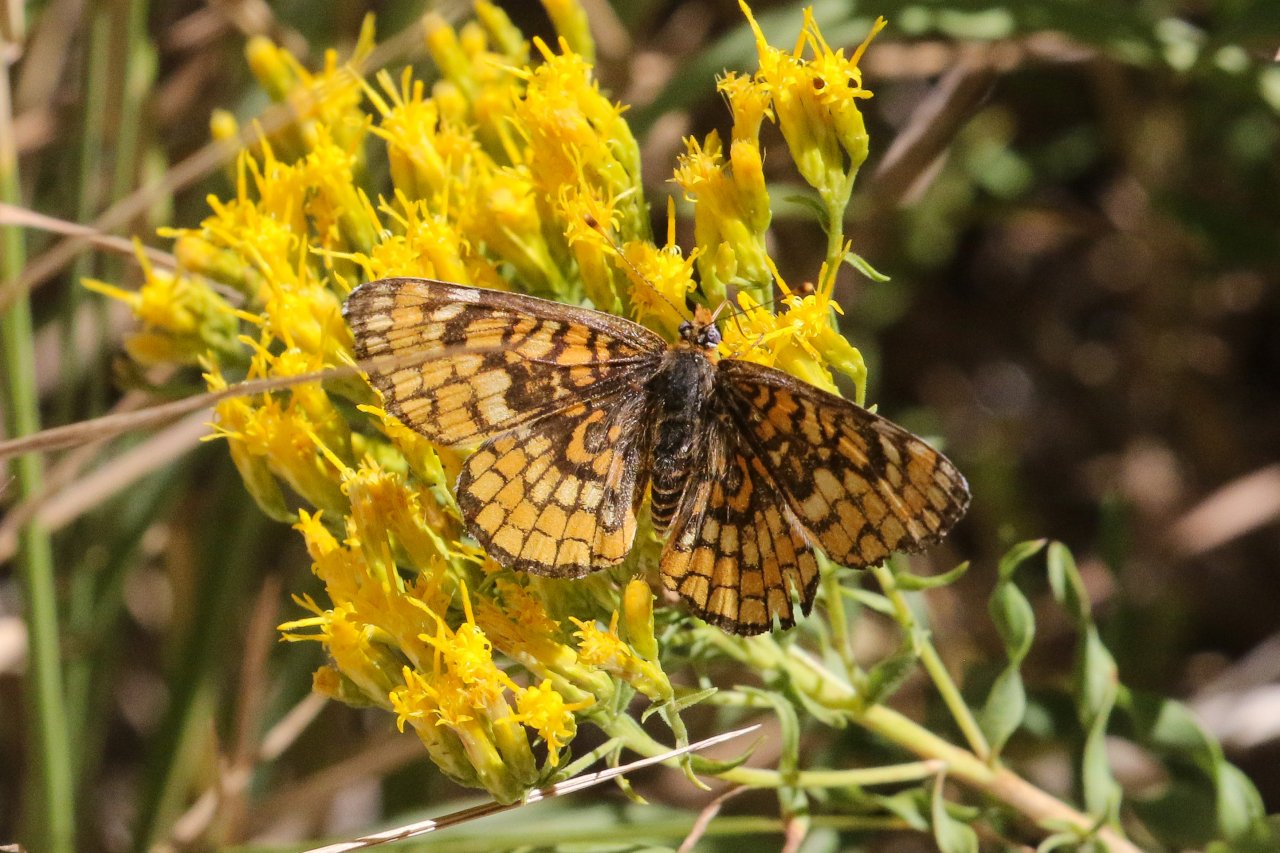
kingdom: Animalia
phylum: Arthropoda
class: Insecta
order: Lepidoptera
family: Nymphalidae
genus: Poladryas
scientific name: Poladryas minuta
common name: Arachne Checkerspot
